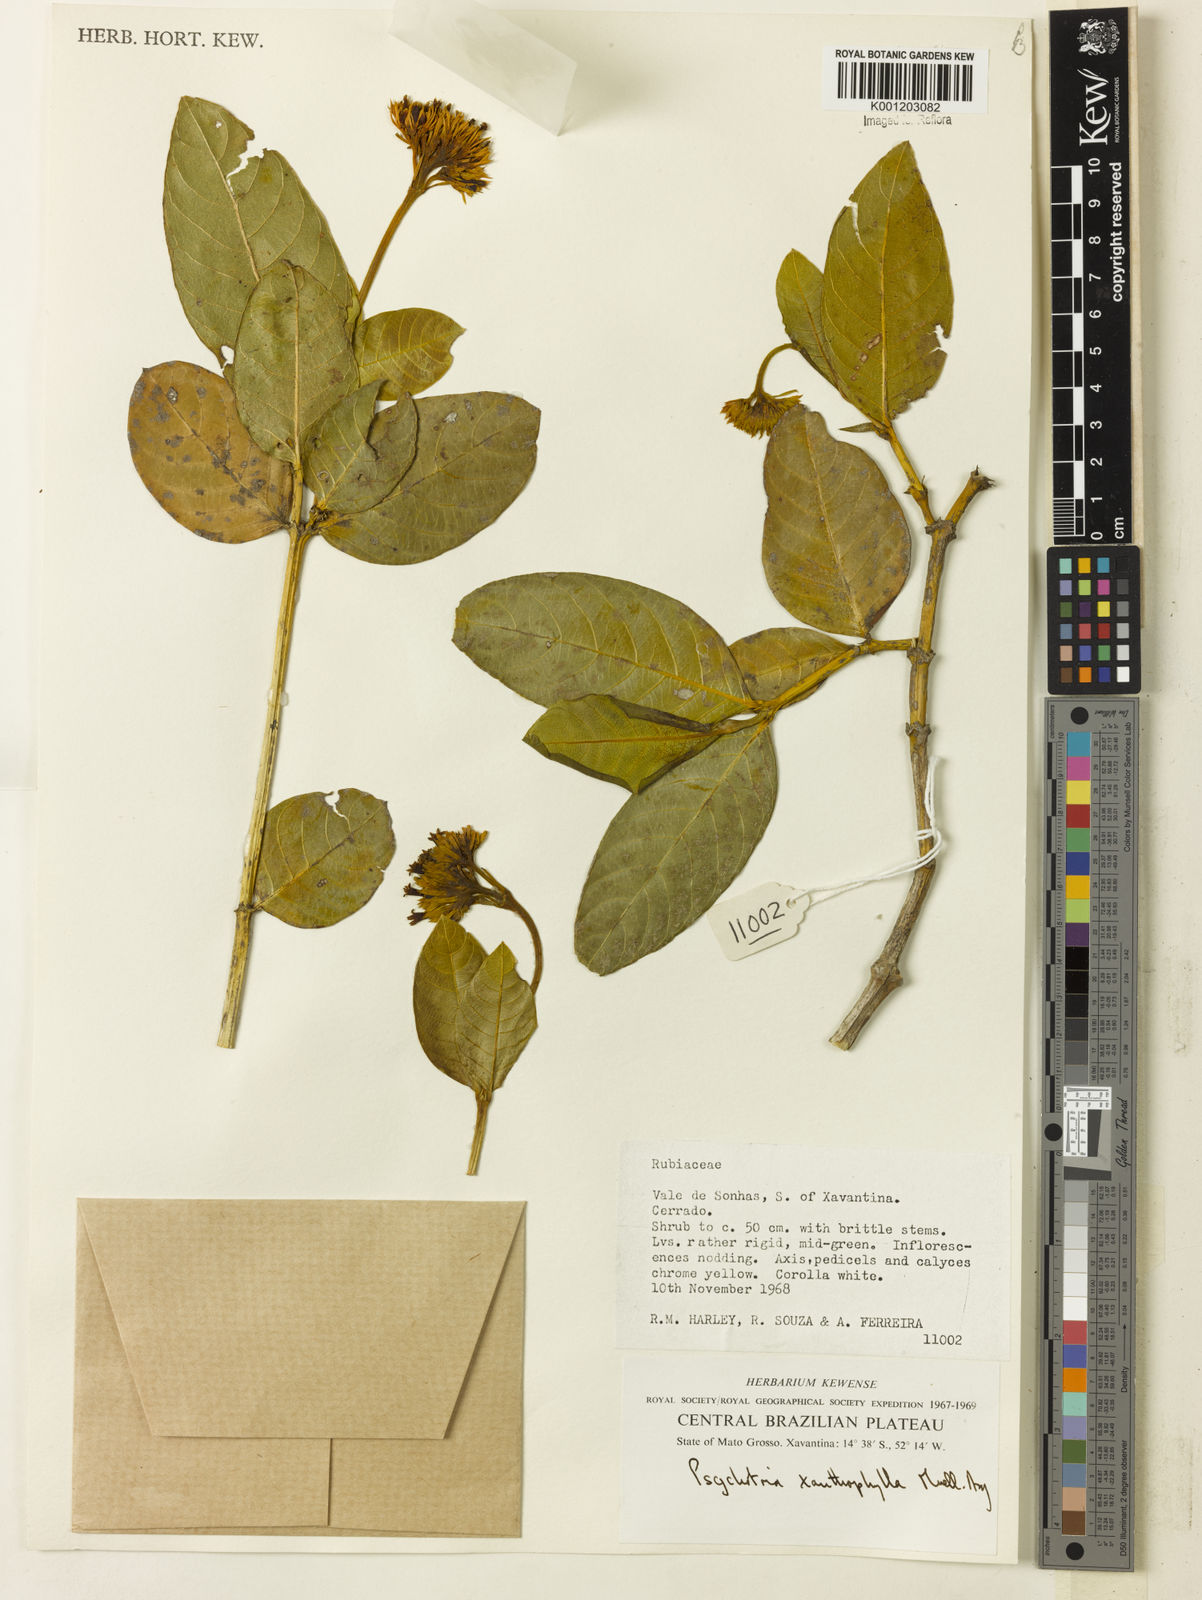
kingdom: Plantae
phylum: Tracheophyta
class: Magnoliopsida
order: Gentianales
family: Rubiaceae
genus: Palicourea
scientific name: Palicourea coriacea
